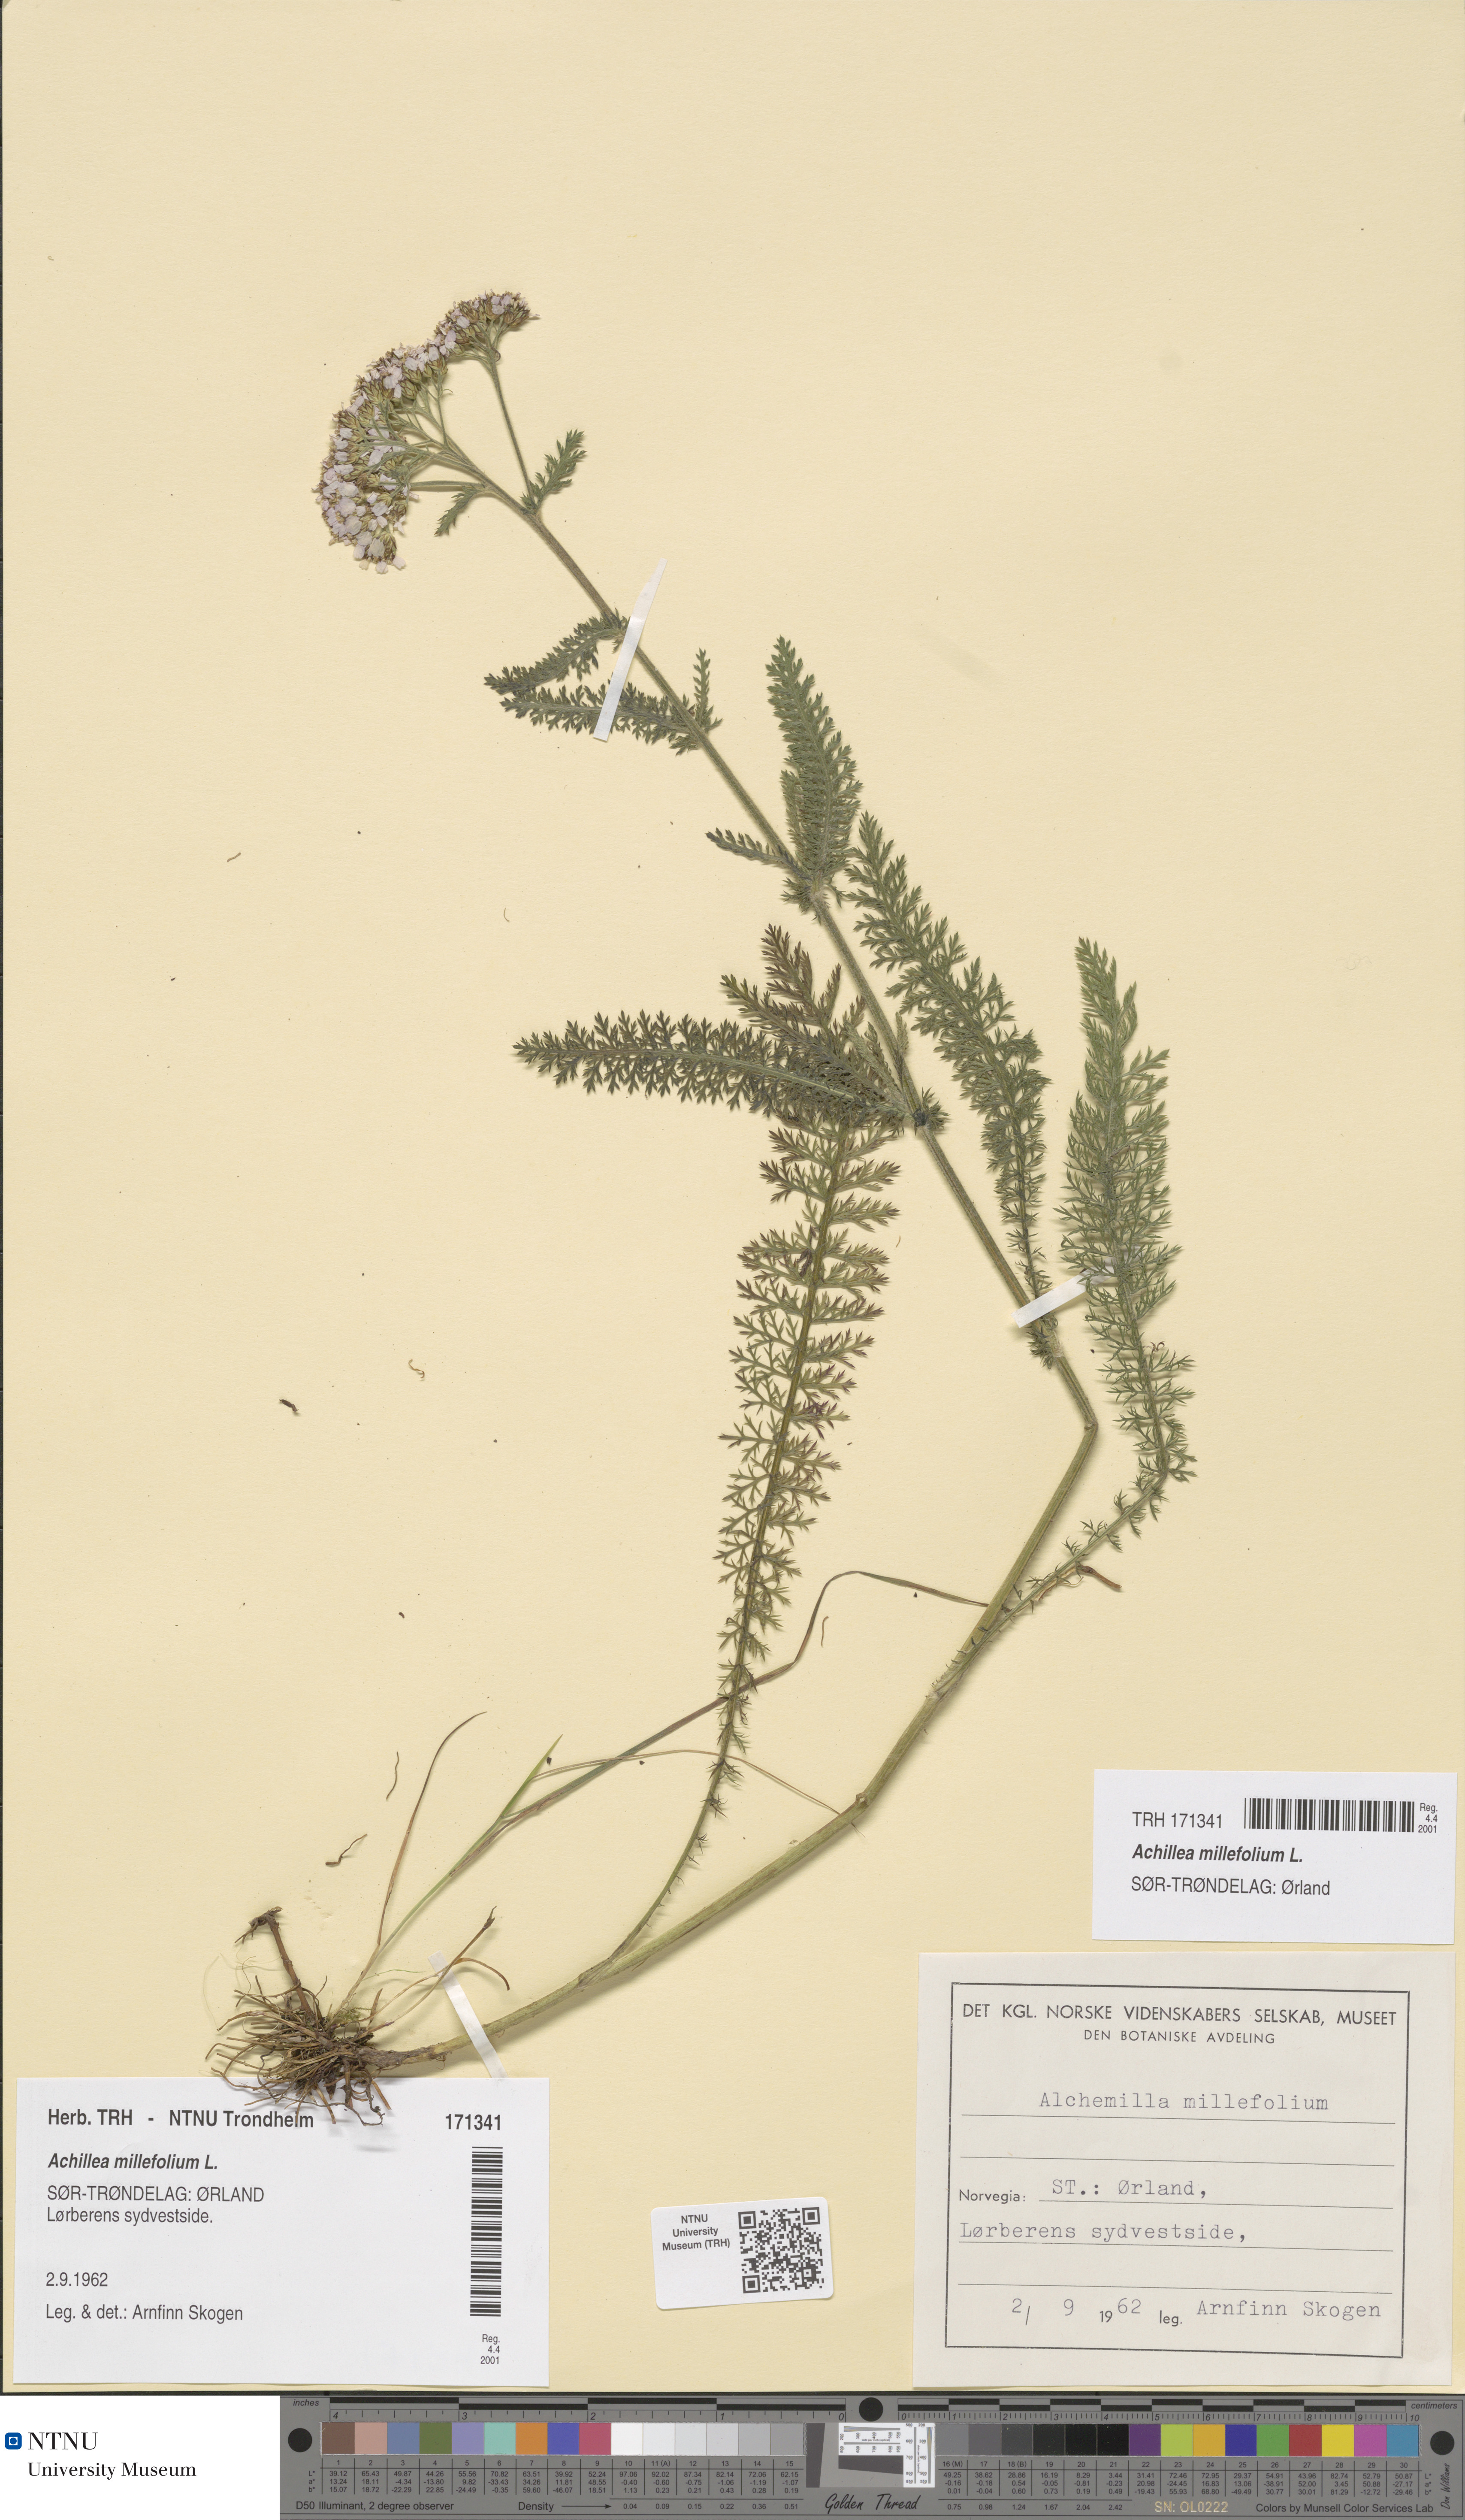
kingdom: Plantae
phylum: Tracheophyta
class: Magnoliopsida
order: Asterales
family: Asteraceae
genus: Achillea
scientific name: Achillea millefolium
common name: Yarrow
